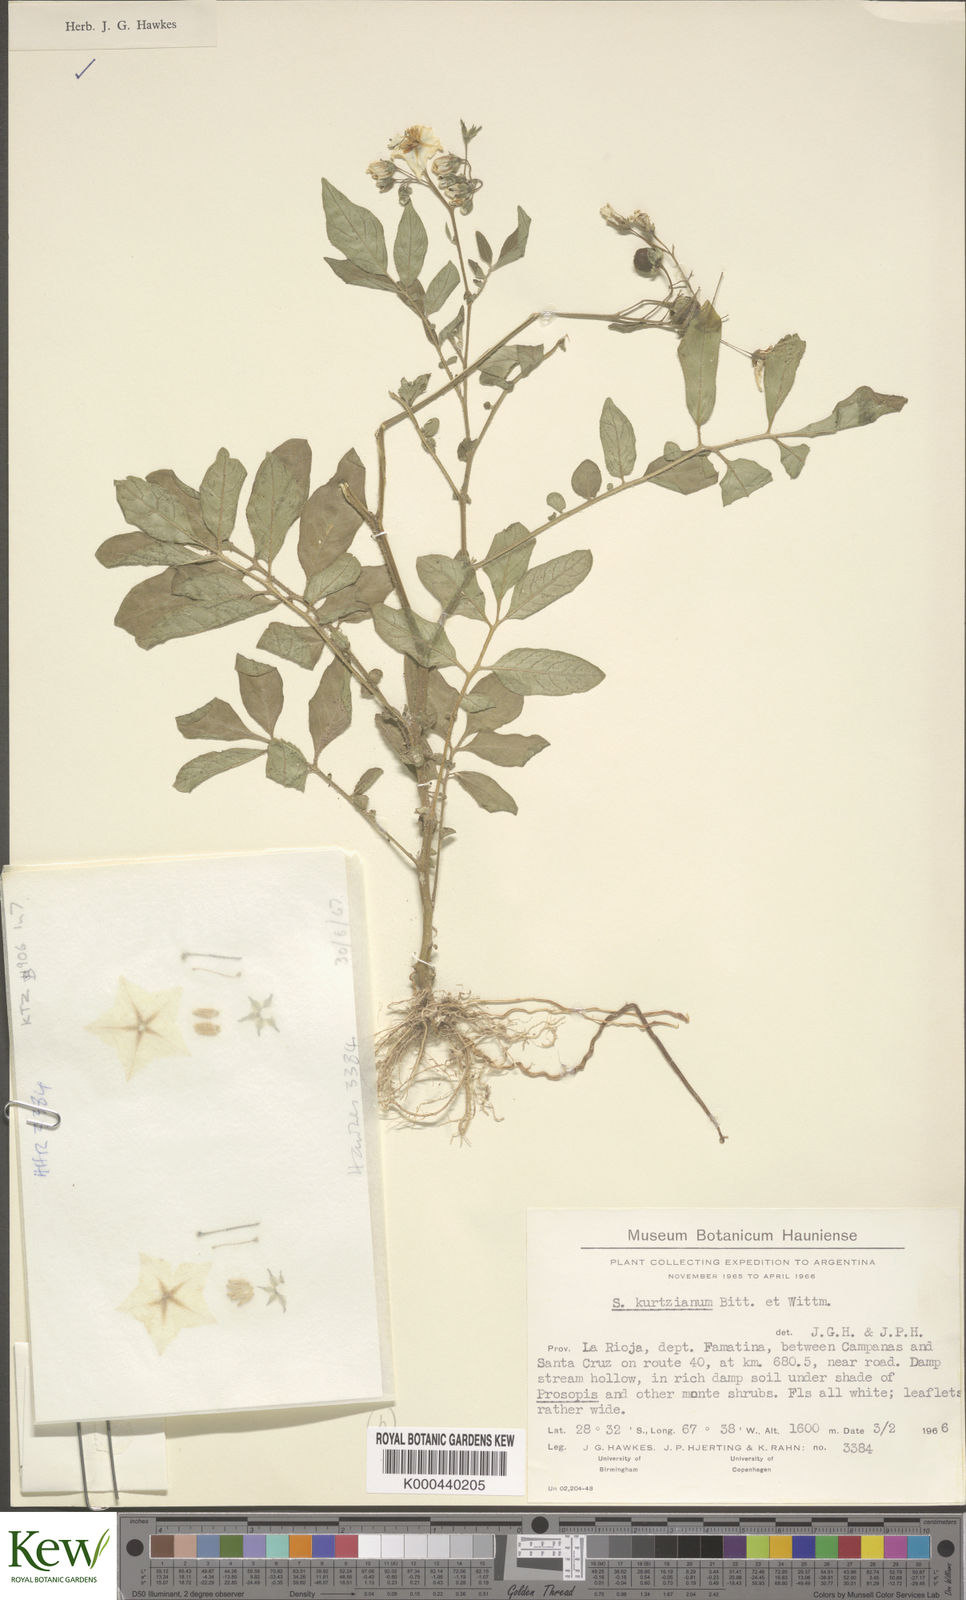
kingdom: Plantae
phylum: Tracheophyta
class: Magnoliopsida
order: Solanales
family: Solanaceae
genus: Solanum
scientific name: Solanum kurtzianum
